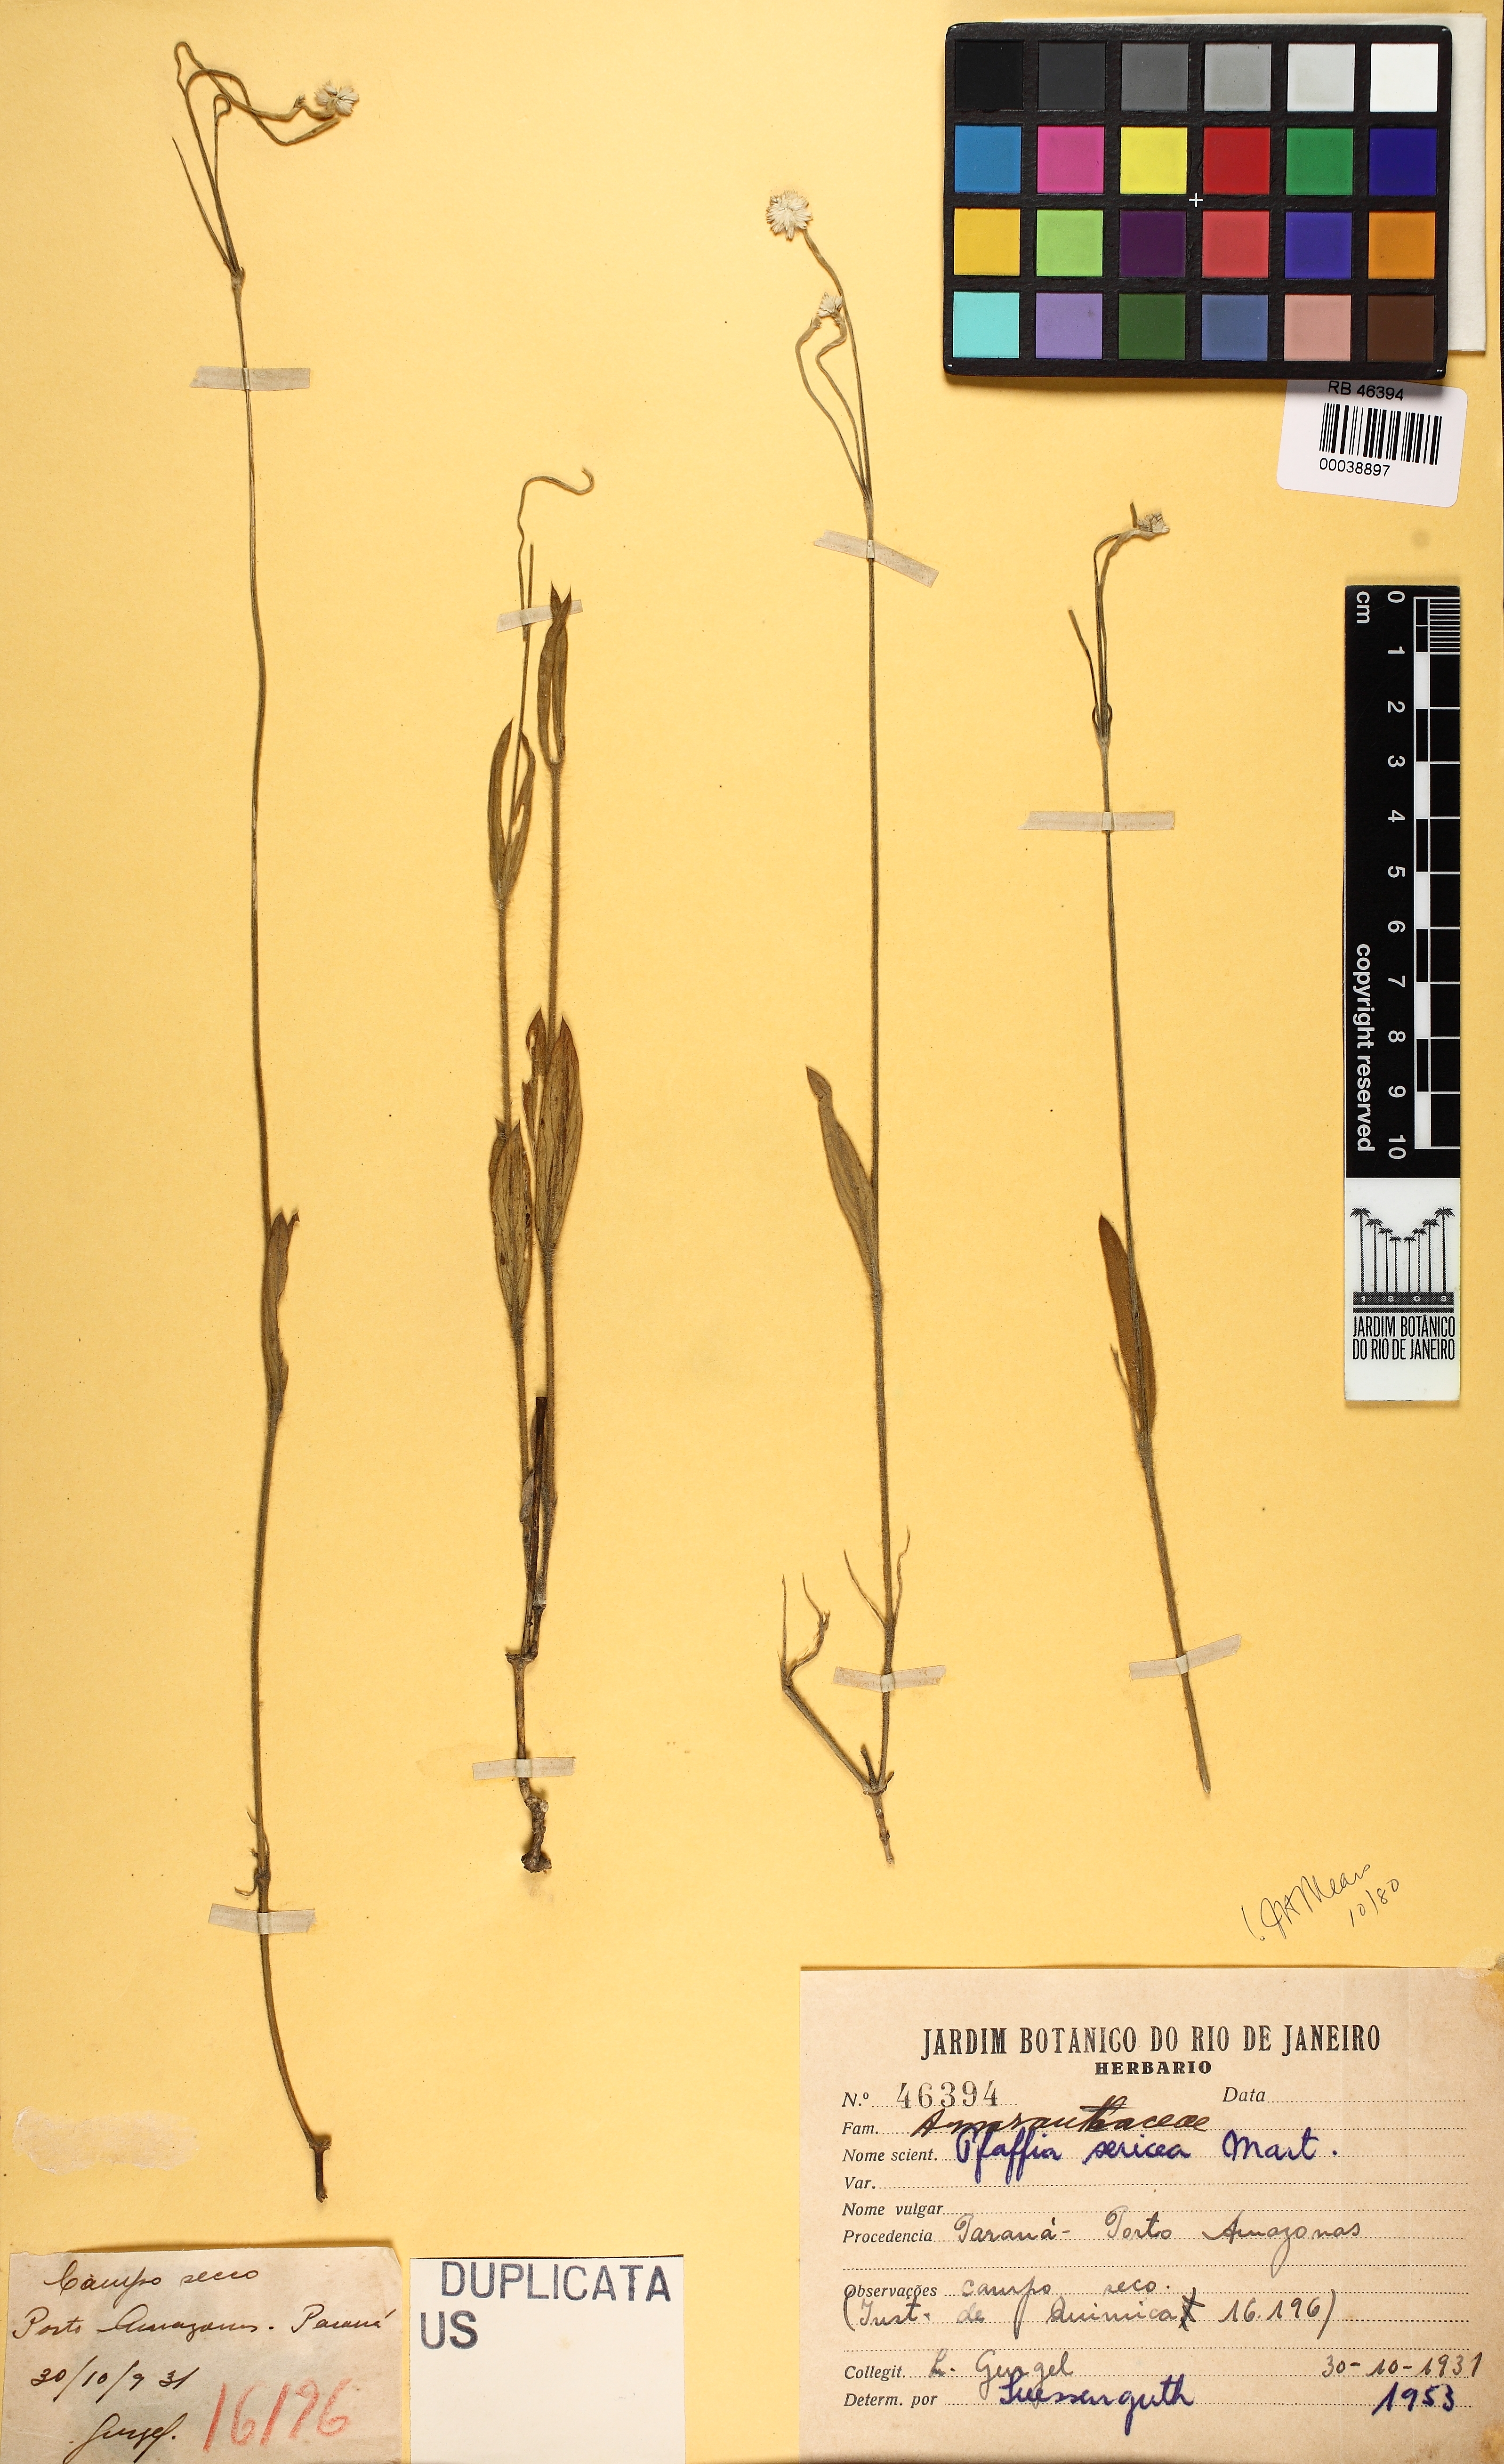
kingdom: Plantae
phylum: Tracheophyta
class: Magnoliopsida
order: Caryophyllales
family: Amaranthaceae
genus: Pfaffia
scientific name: Pfaffia tuberosa
